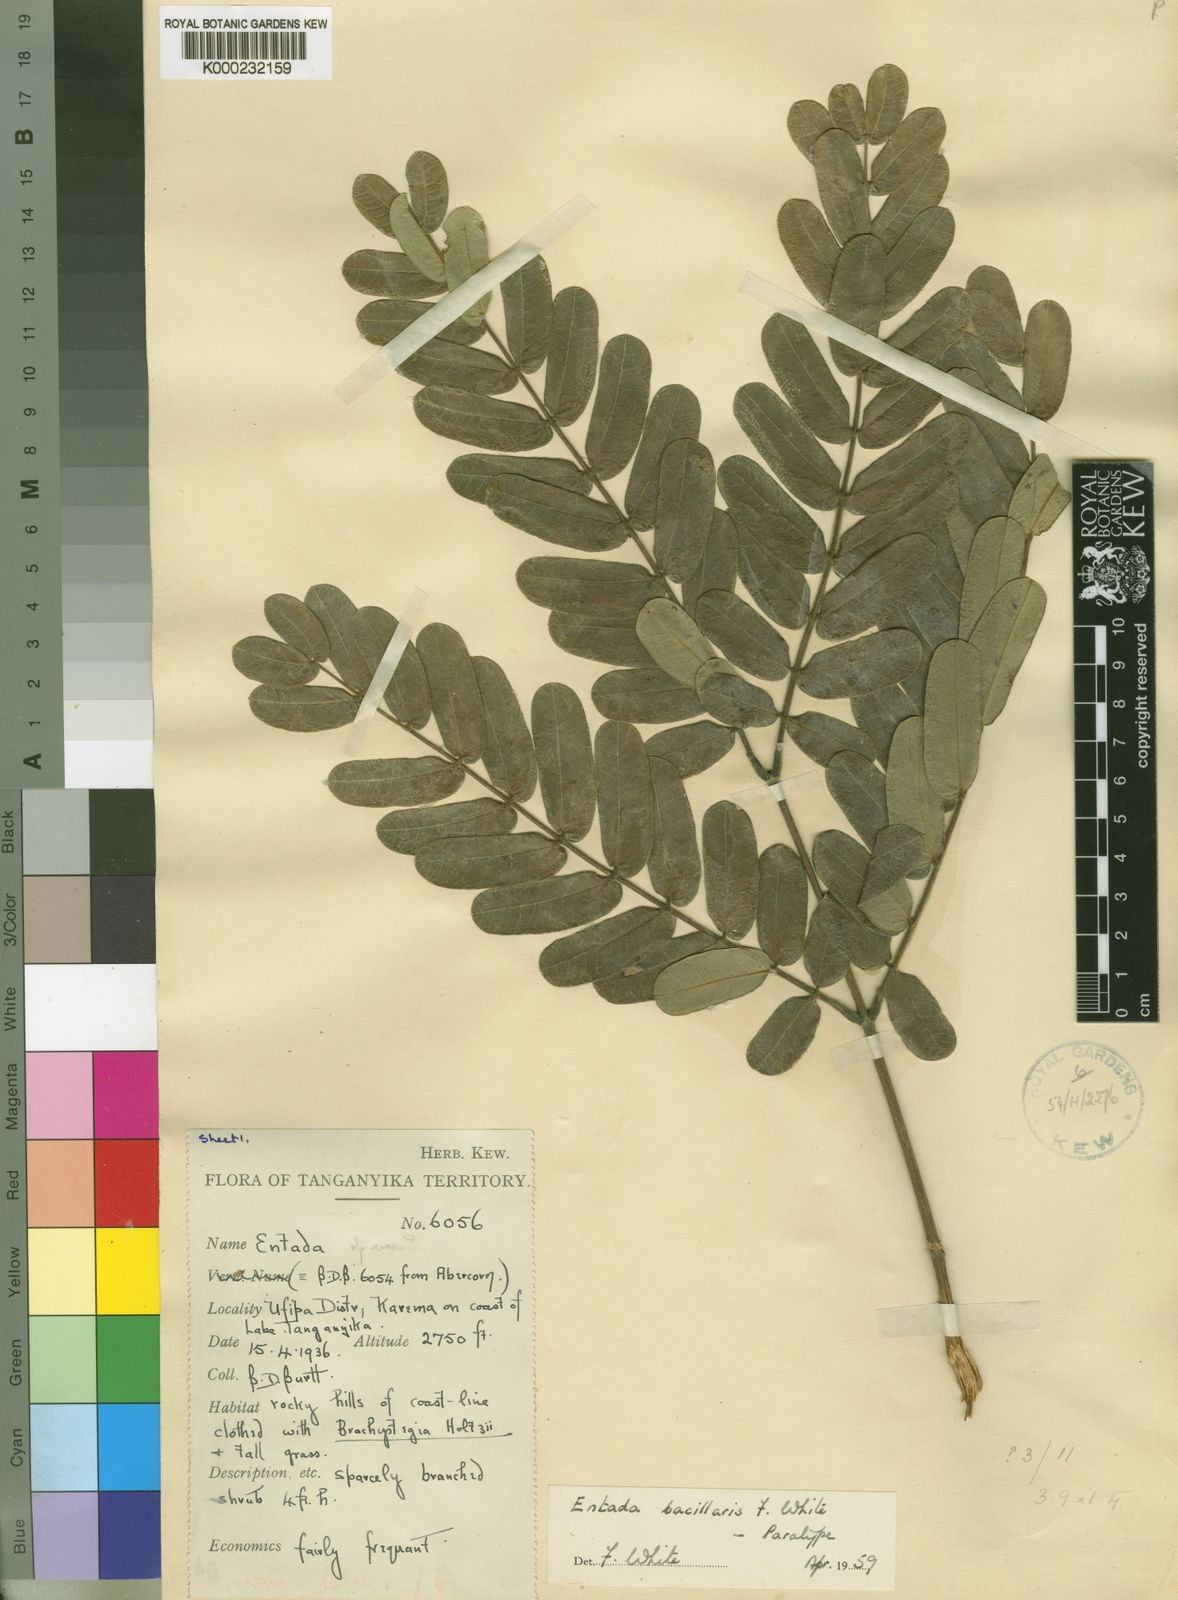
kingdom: Plantae
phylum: Tracheophyta
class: Magnoliopsida
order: Fabales
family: Fabaceae
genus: Entada
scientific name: Entada bacillaris
